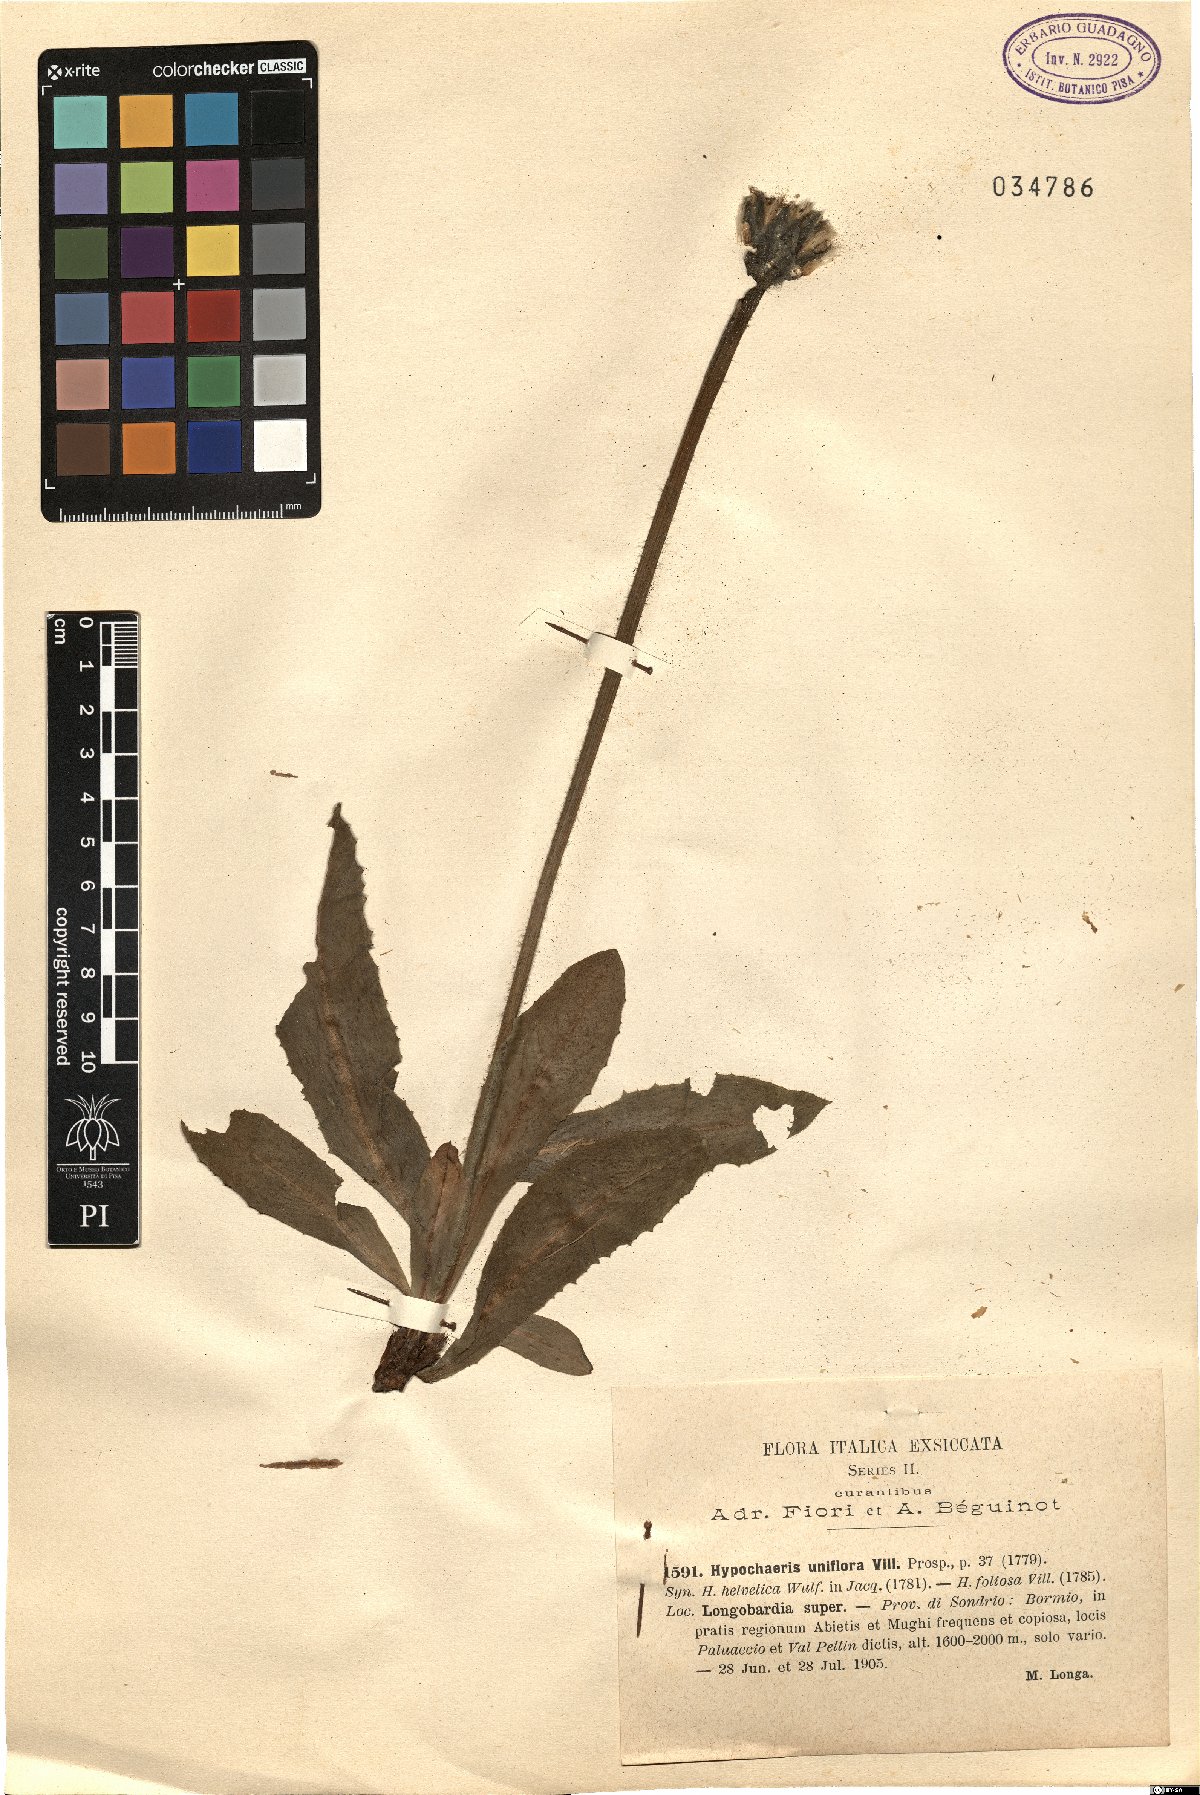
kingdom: Plantae
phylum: Tracheophyta
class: Magnoliopsida
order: Asterales
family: Asteraceae
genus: Trommsdorffia
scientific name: Trommsdorffia uniflora
